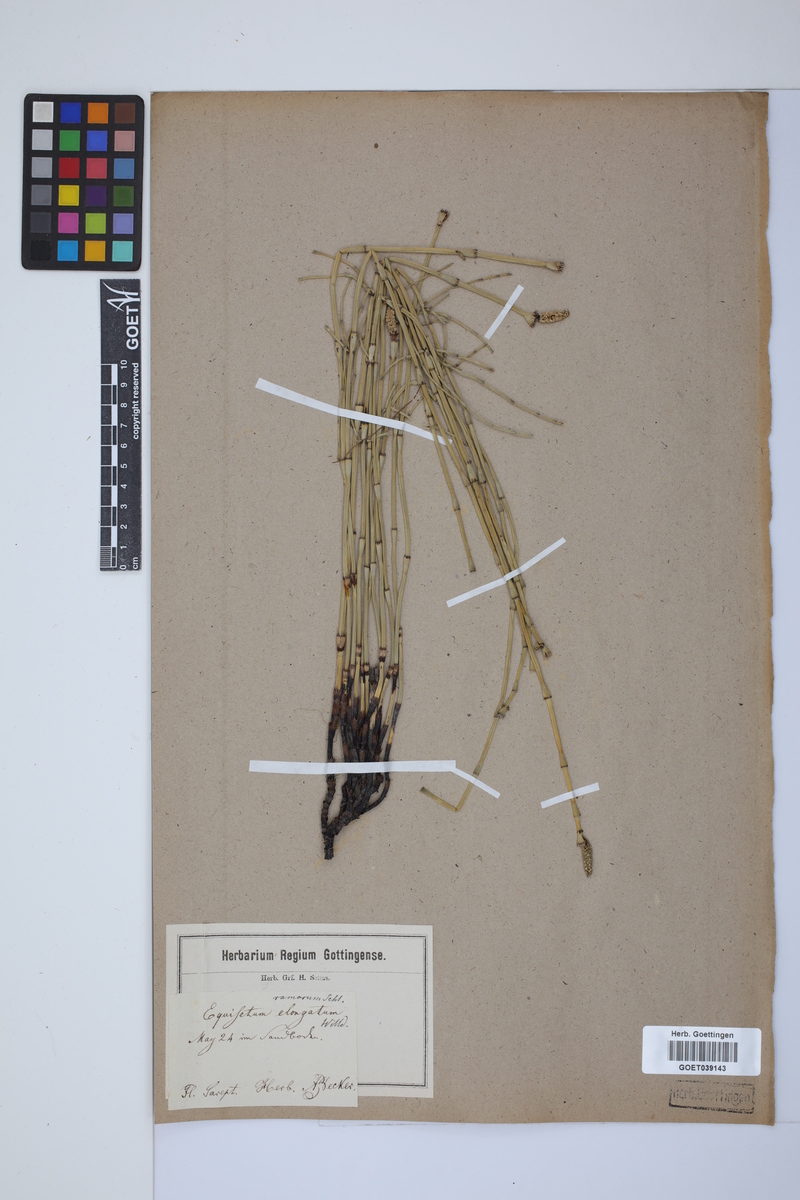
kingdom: Plantae
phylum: Tracheophyta
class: Polypodiopsida
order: Equisetales
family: Equisetaceae
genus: Equisetum
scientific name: Equisetum giganteum
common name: Giant horsetail
